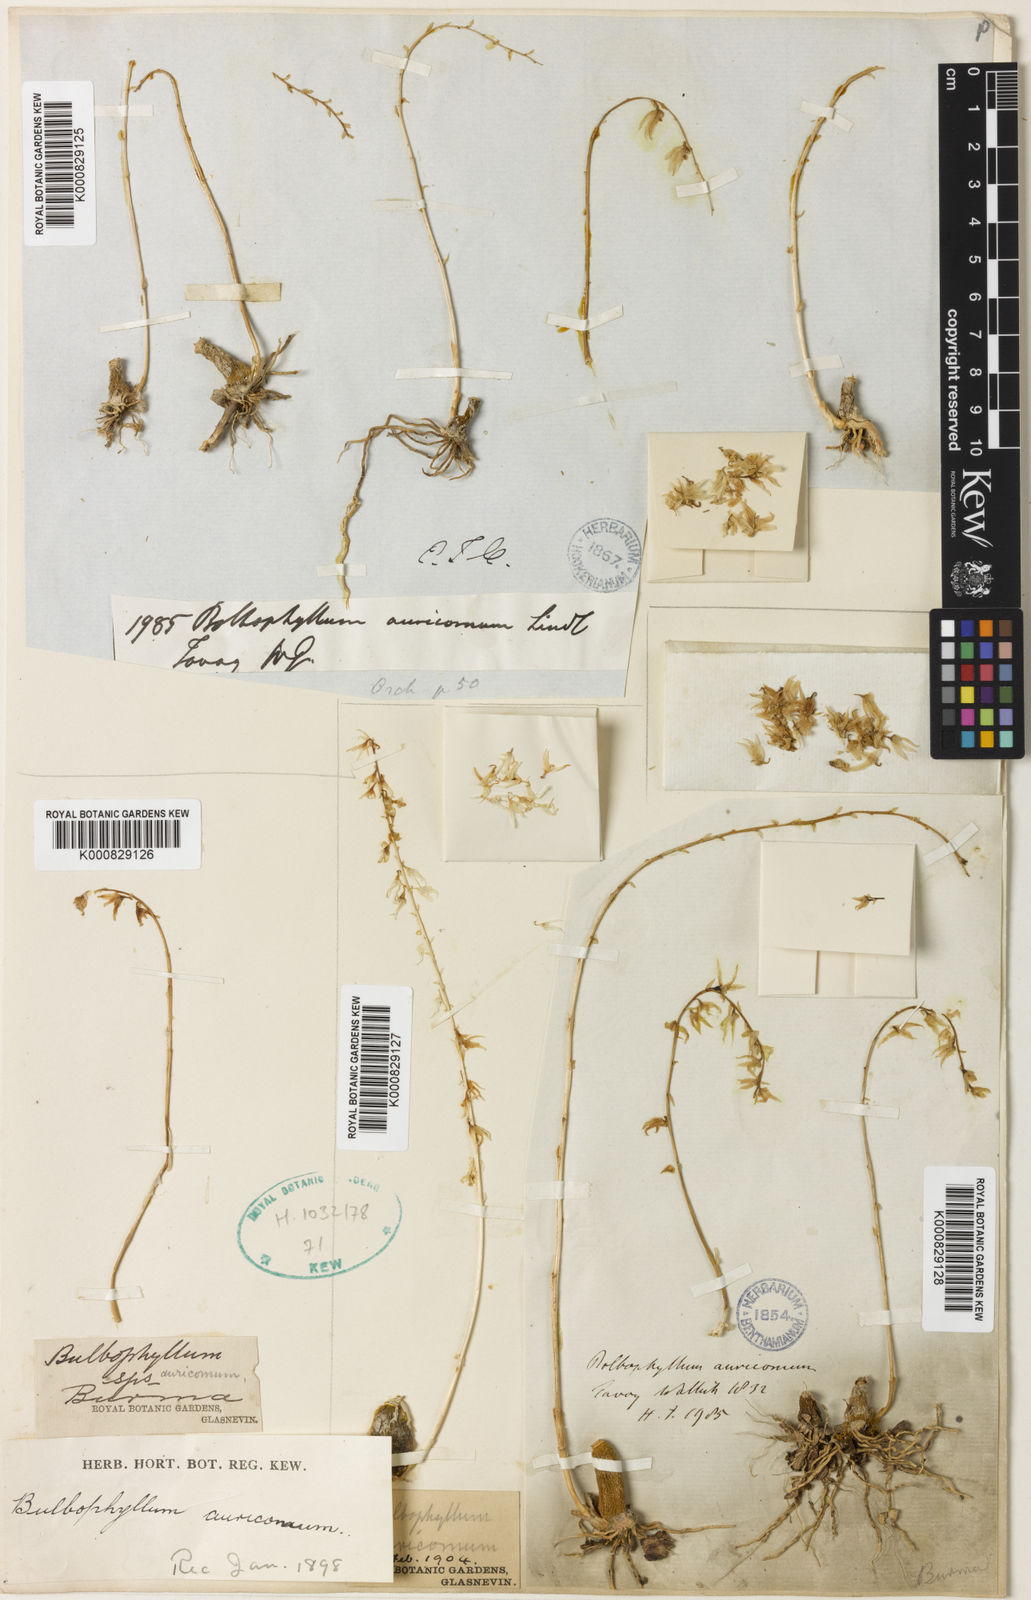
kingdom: Plantae
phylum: Tracheophyta
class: Liliopsida
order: Asparagales
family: Orchidaceae
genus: Bulbophyllum
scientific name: Bulbophyllum auricomum
